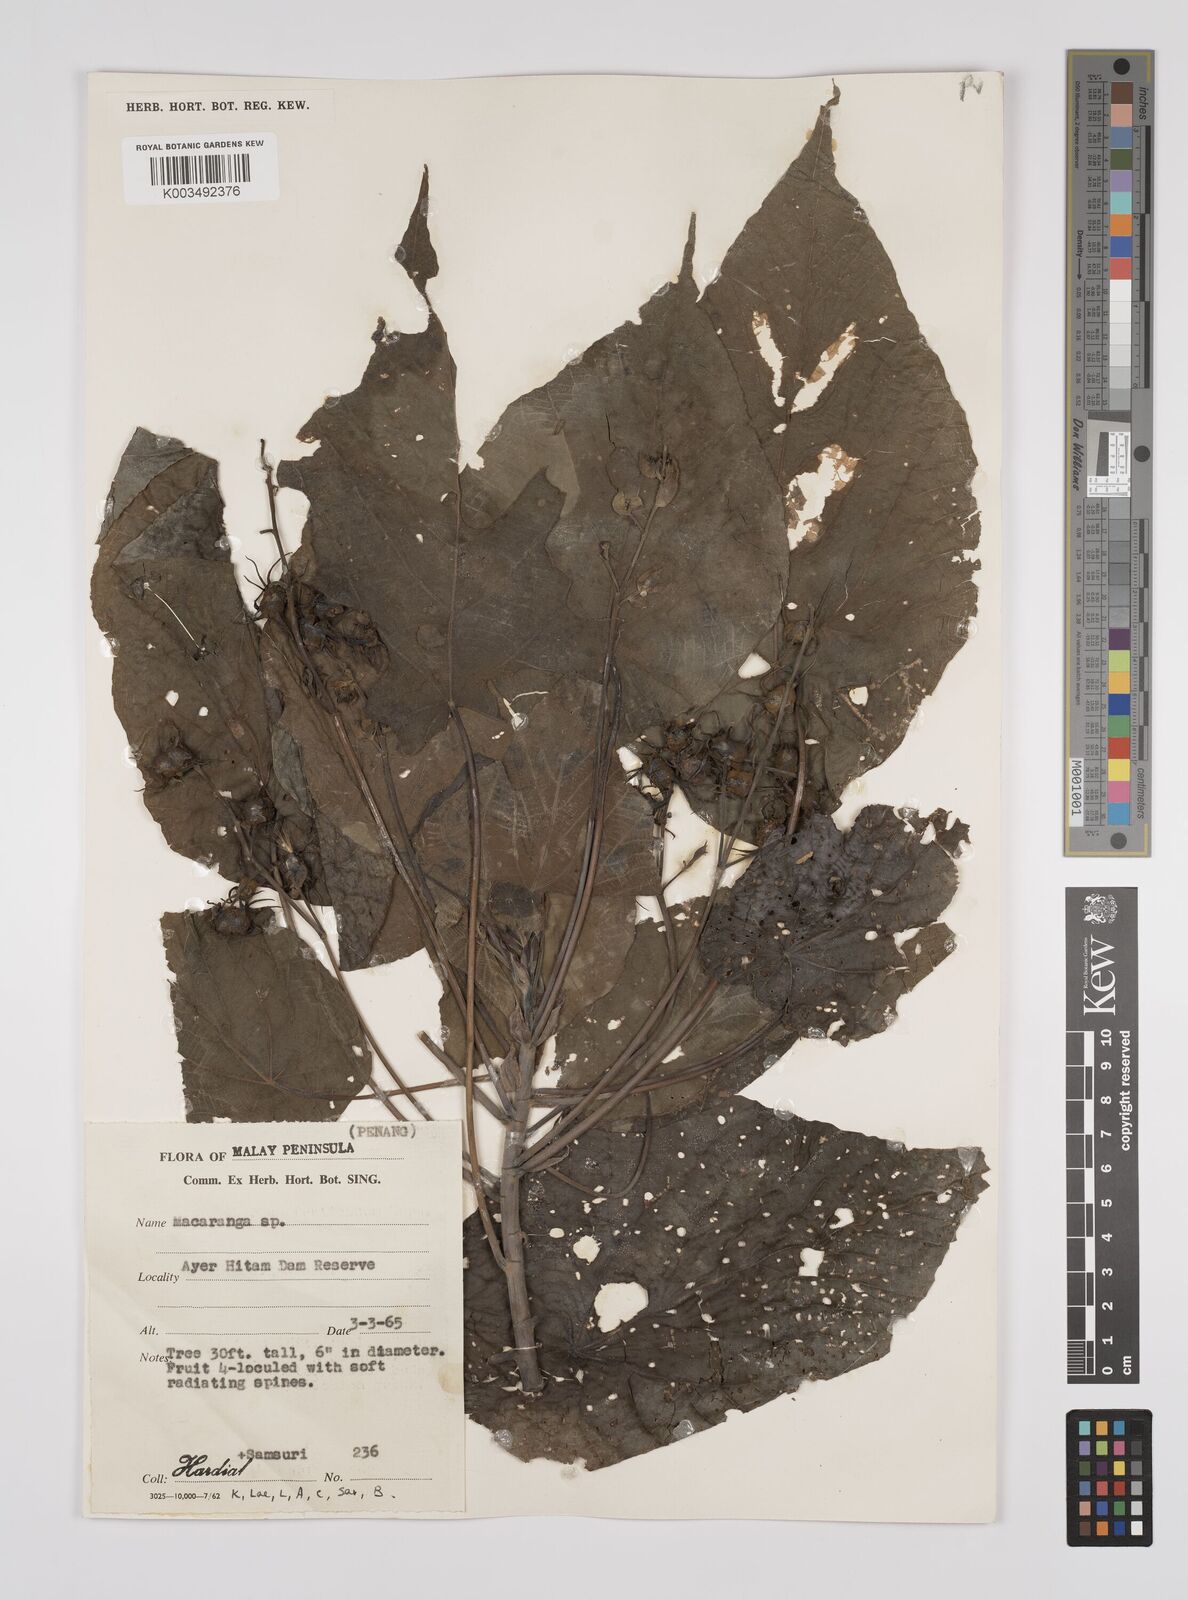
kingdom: Plantae
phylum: Tracheophyta
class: Magnoliopsida
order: Malpighiales
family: Euphorbiaceae
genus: Macaranga
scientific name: Macaranga tanarius
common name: Parasol leaf tree
